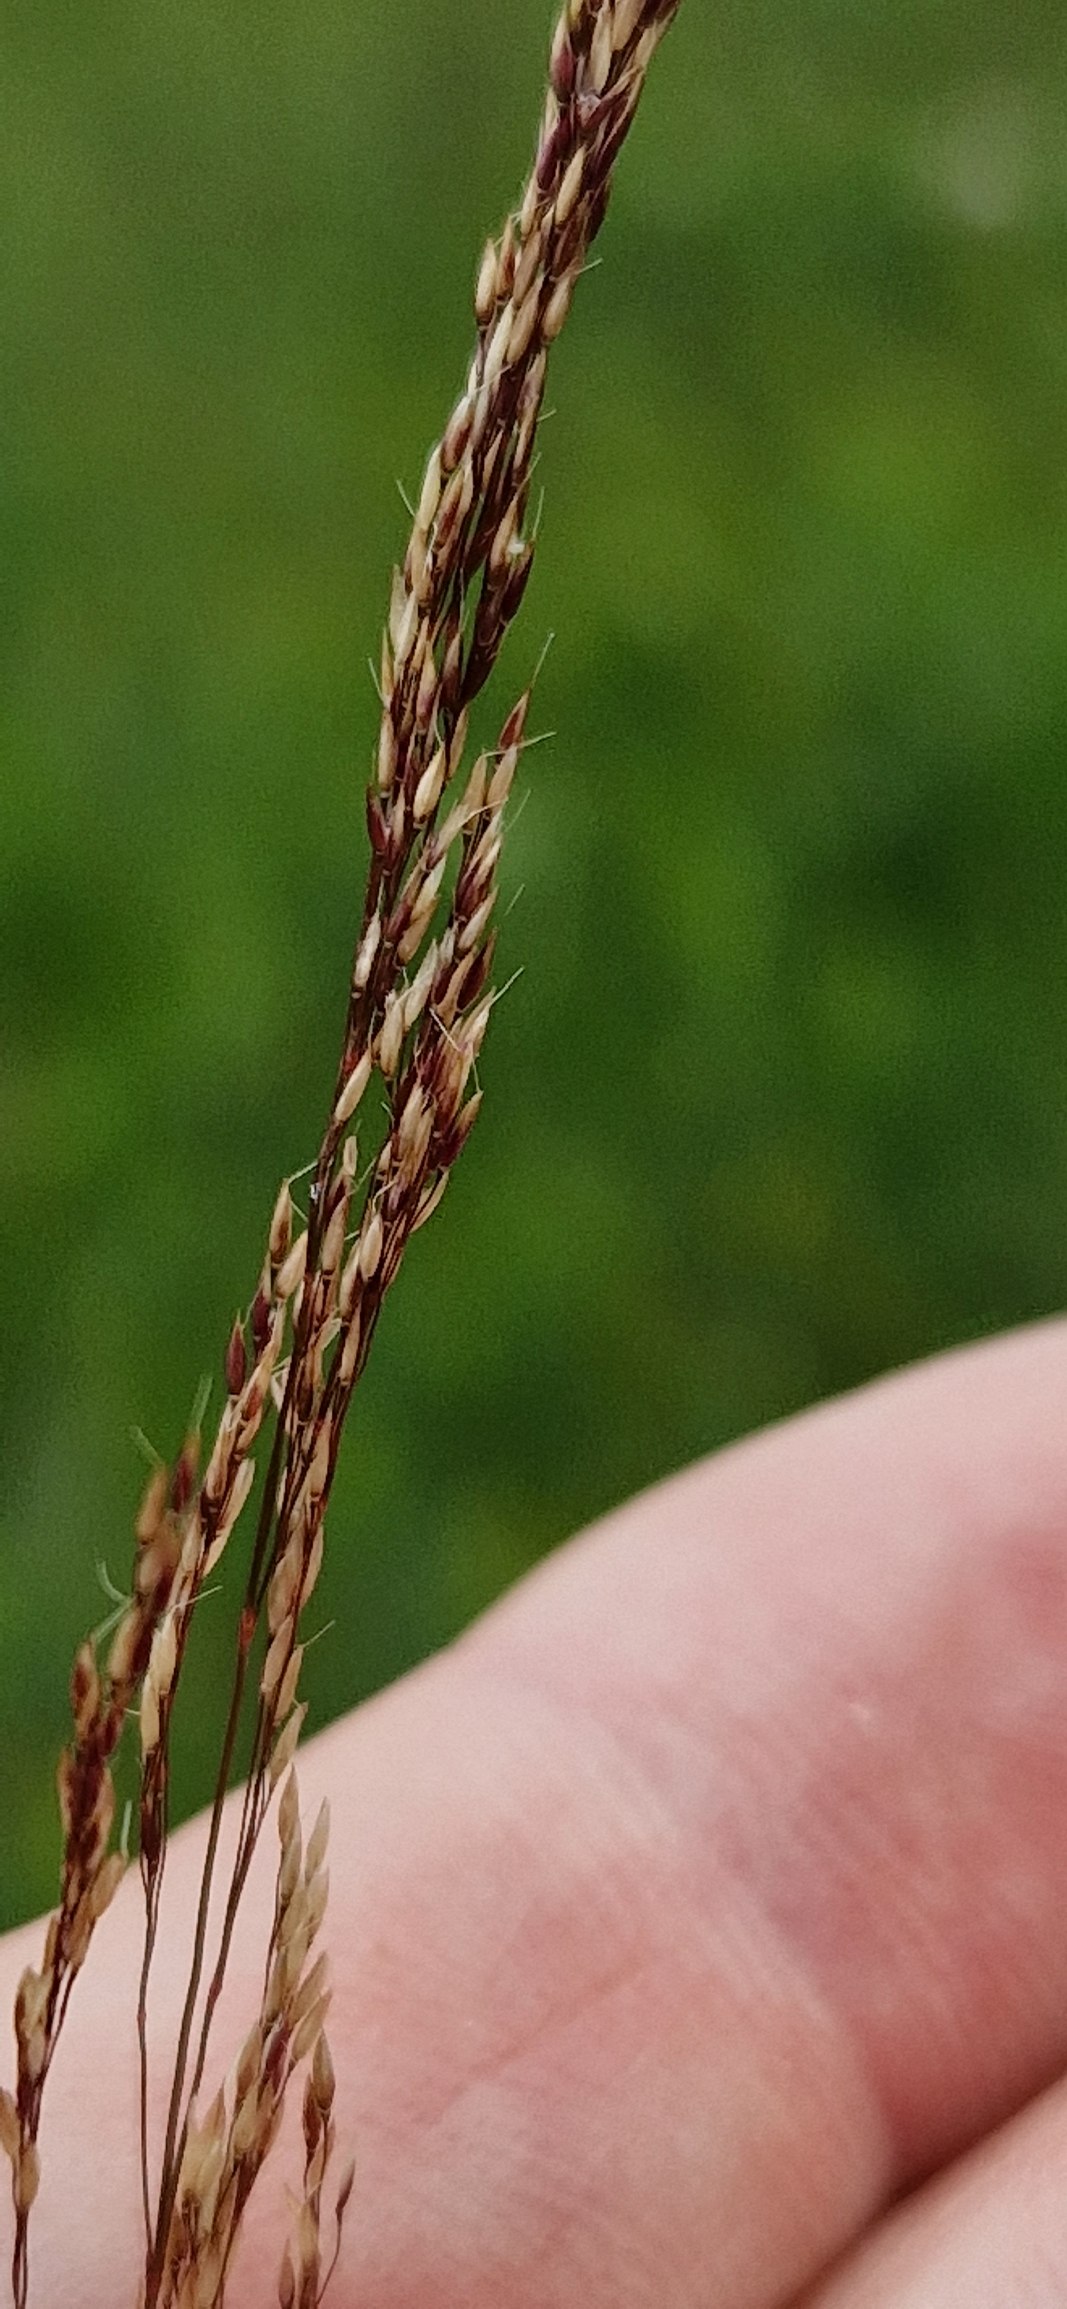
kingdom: Plantae
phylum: Tracheophyta
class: Liliopsida
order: Poales
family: Poaceae
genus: Agrostis
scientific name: Agrostis canina
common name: Hunde-hvene
